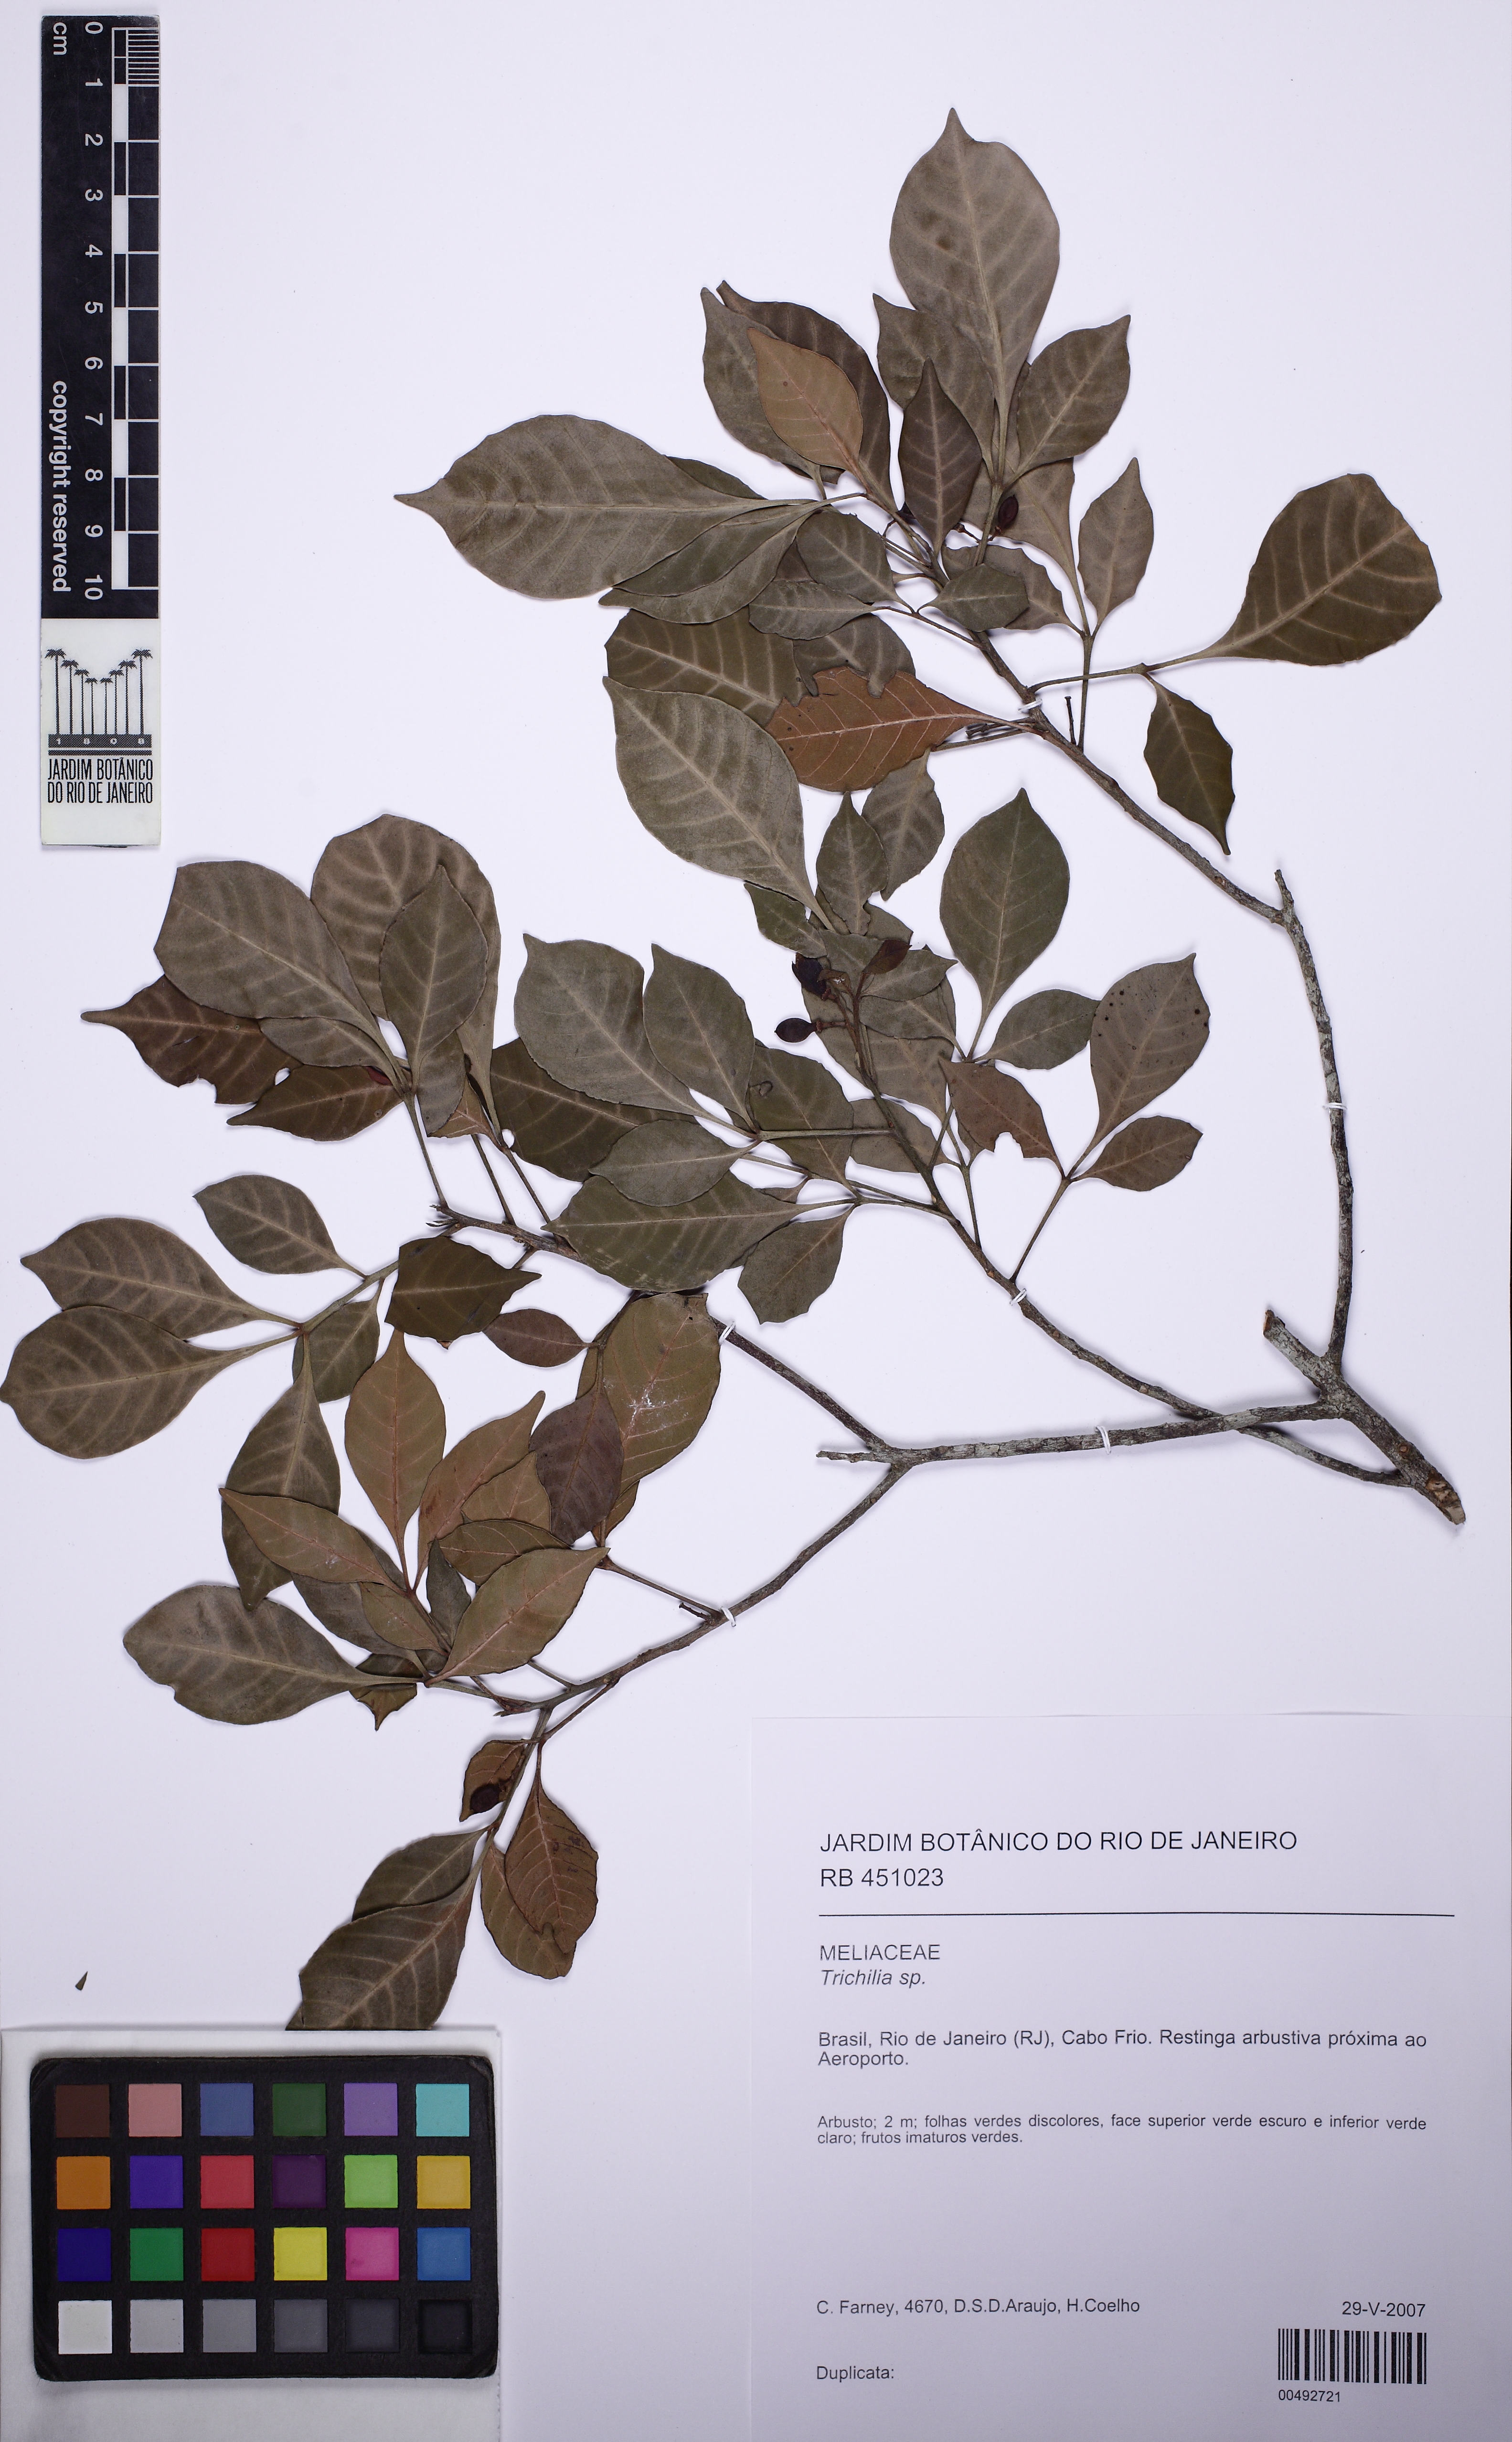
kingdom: Plantae
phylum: Tracheophyta
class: Magnoliopsida
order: Sapindales
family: Meliaceae
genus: Trichilia
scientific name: Trichilia casaretti
